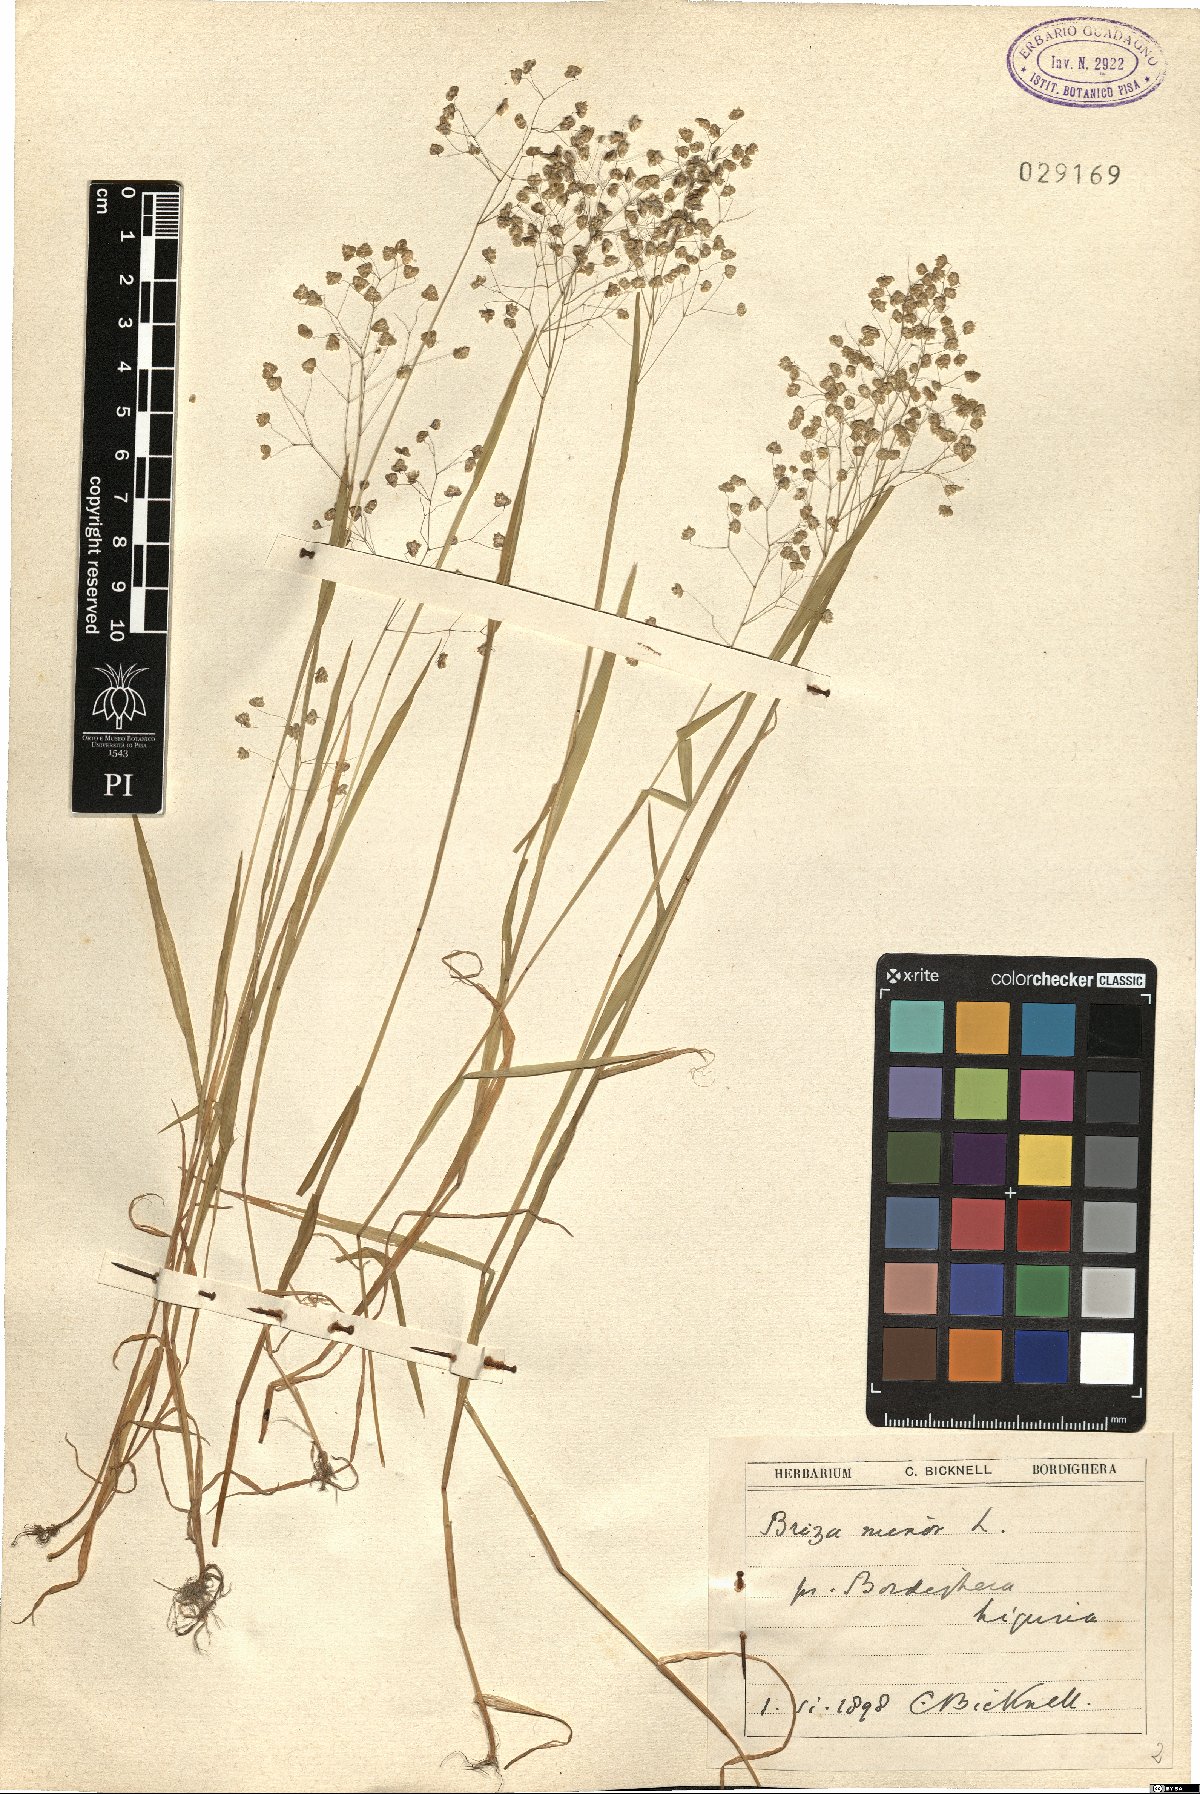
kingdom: Plantae
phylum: Tracheophyta
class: Liliopsida
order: Poales
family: Poaceae
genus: Briza
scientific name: Briza minor
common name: Lesser quaking-grass
